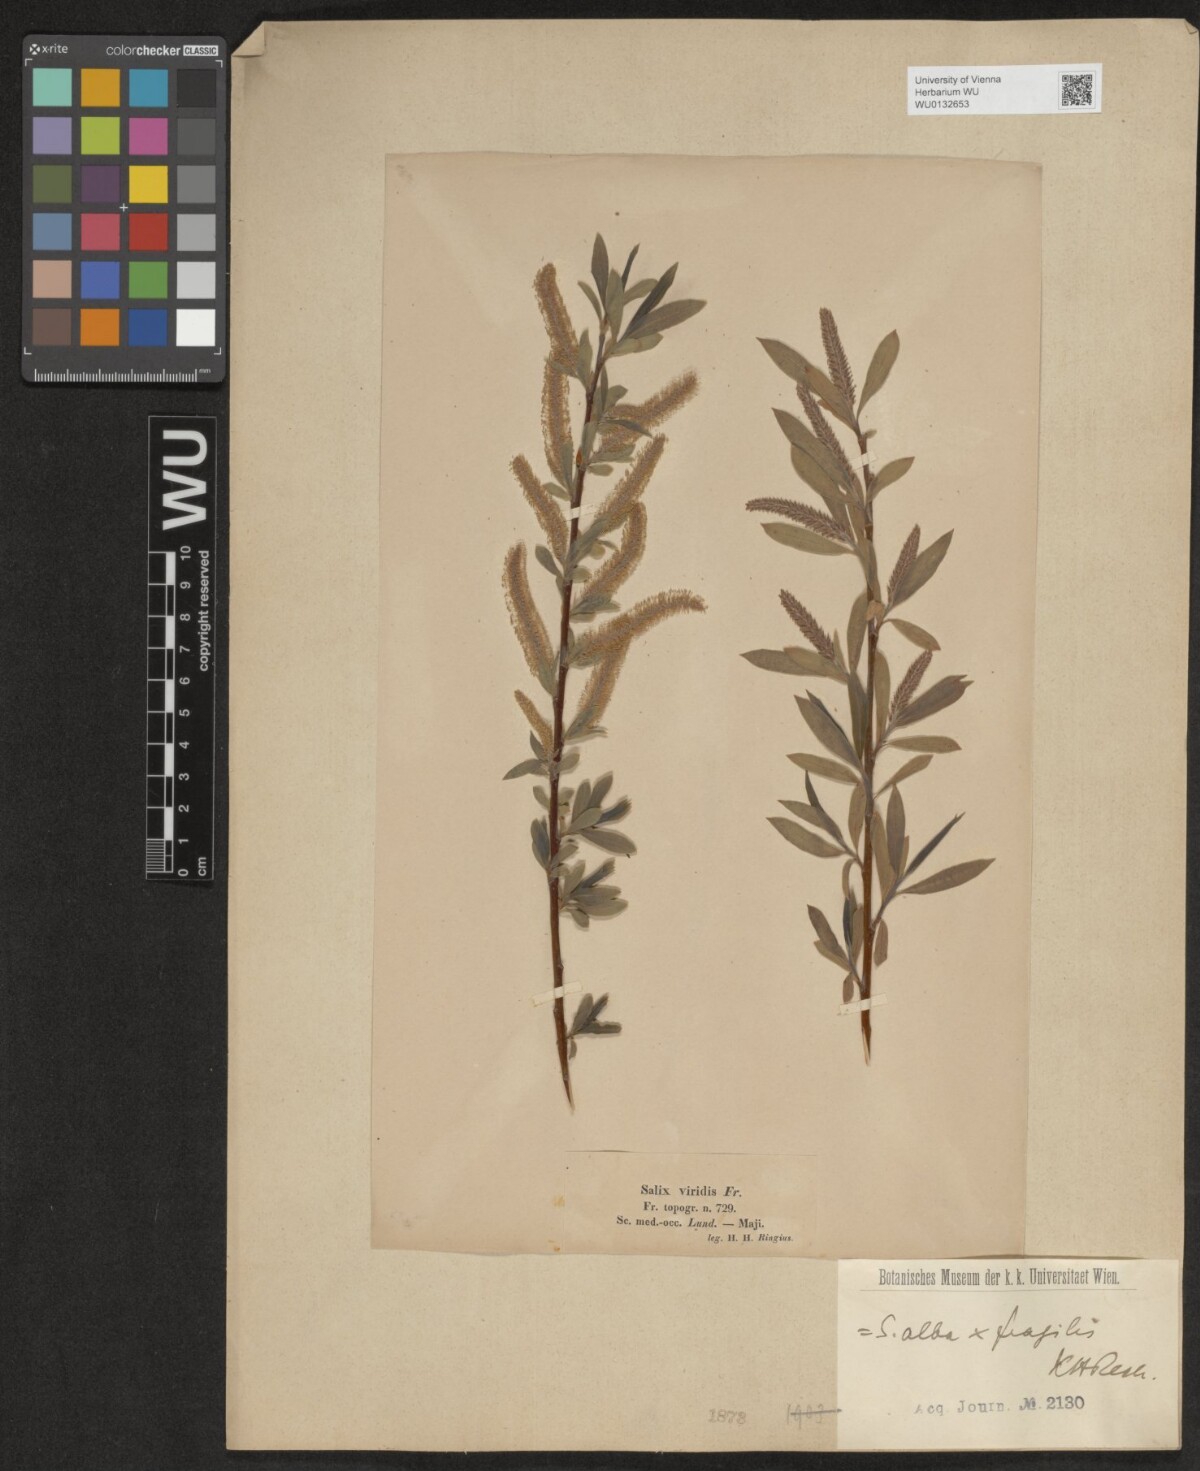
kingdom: Plantae
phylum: Tracheophyta
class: Magnoliopsida
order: Malpighiales
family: Salicaceae
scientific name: Salicaceae
